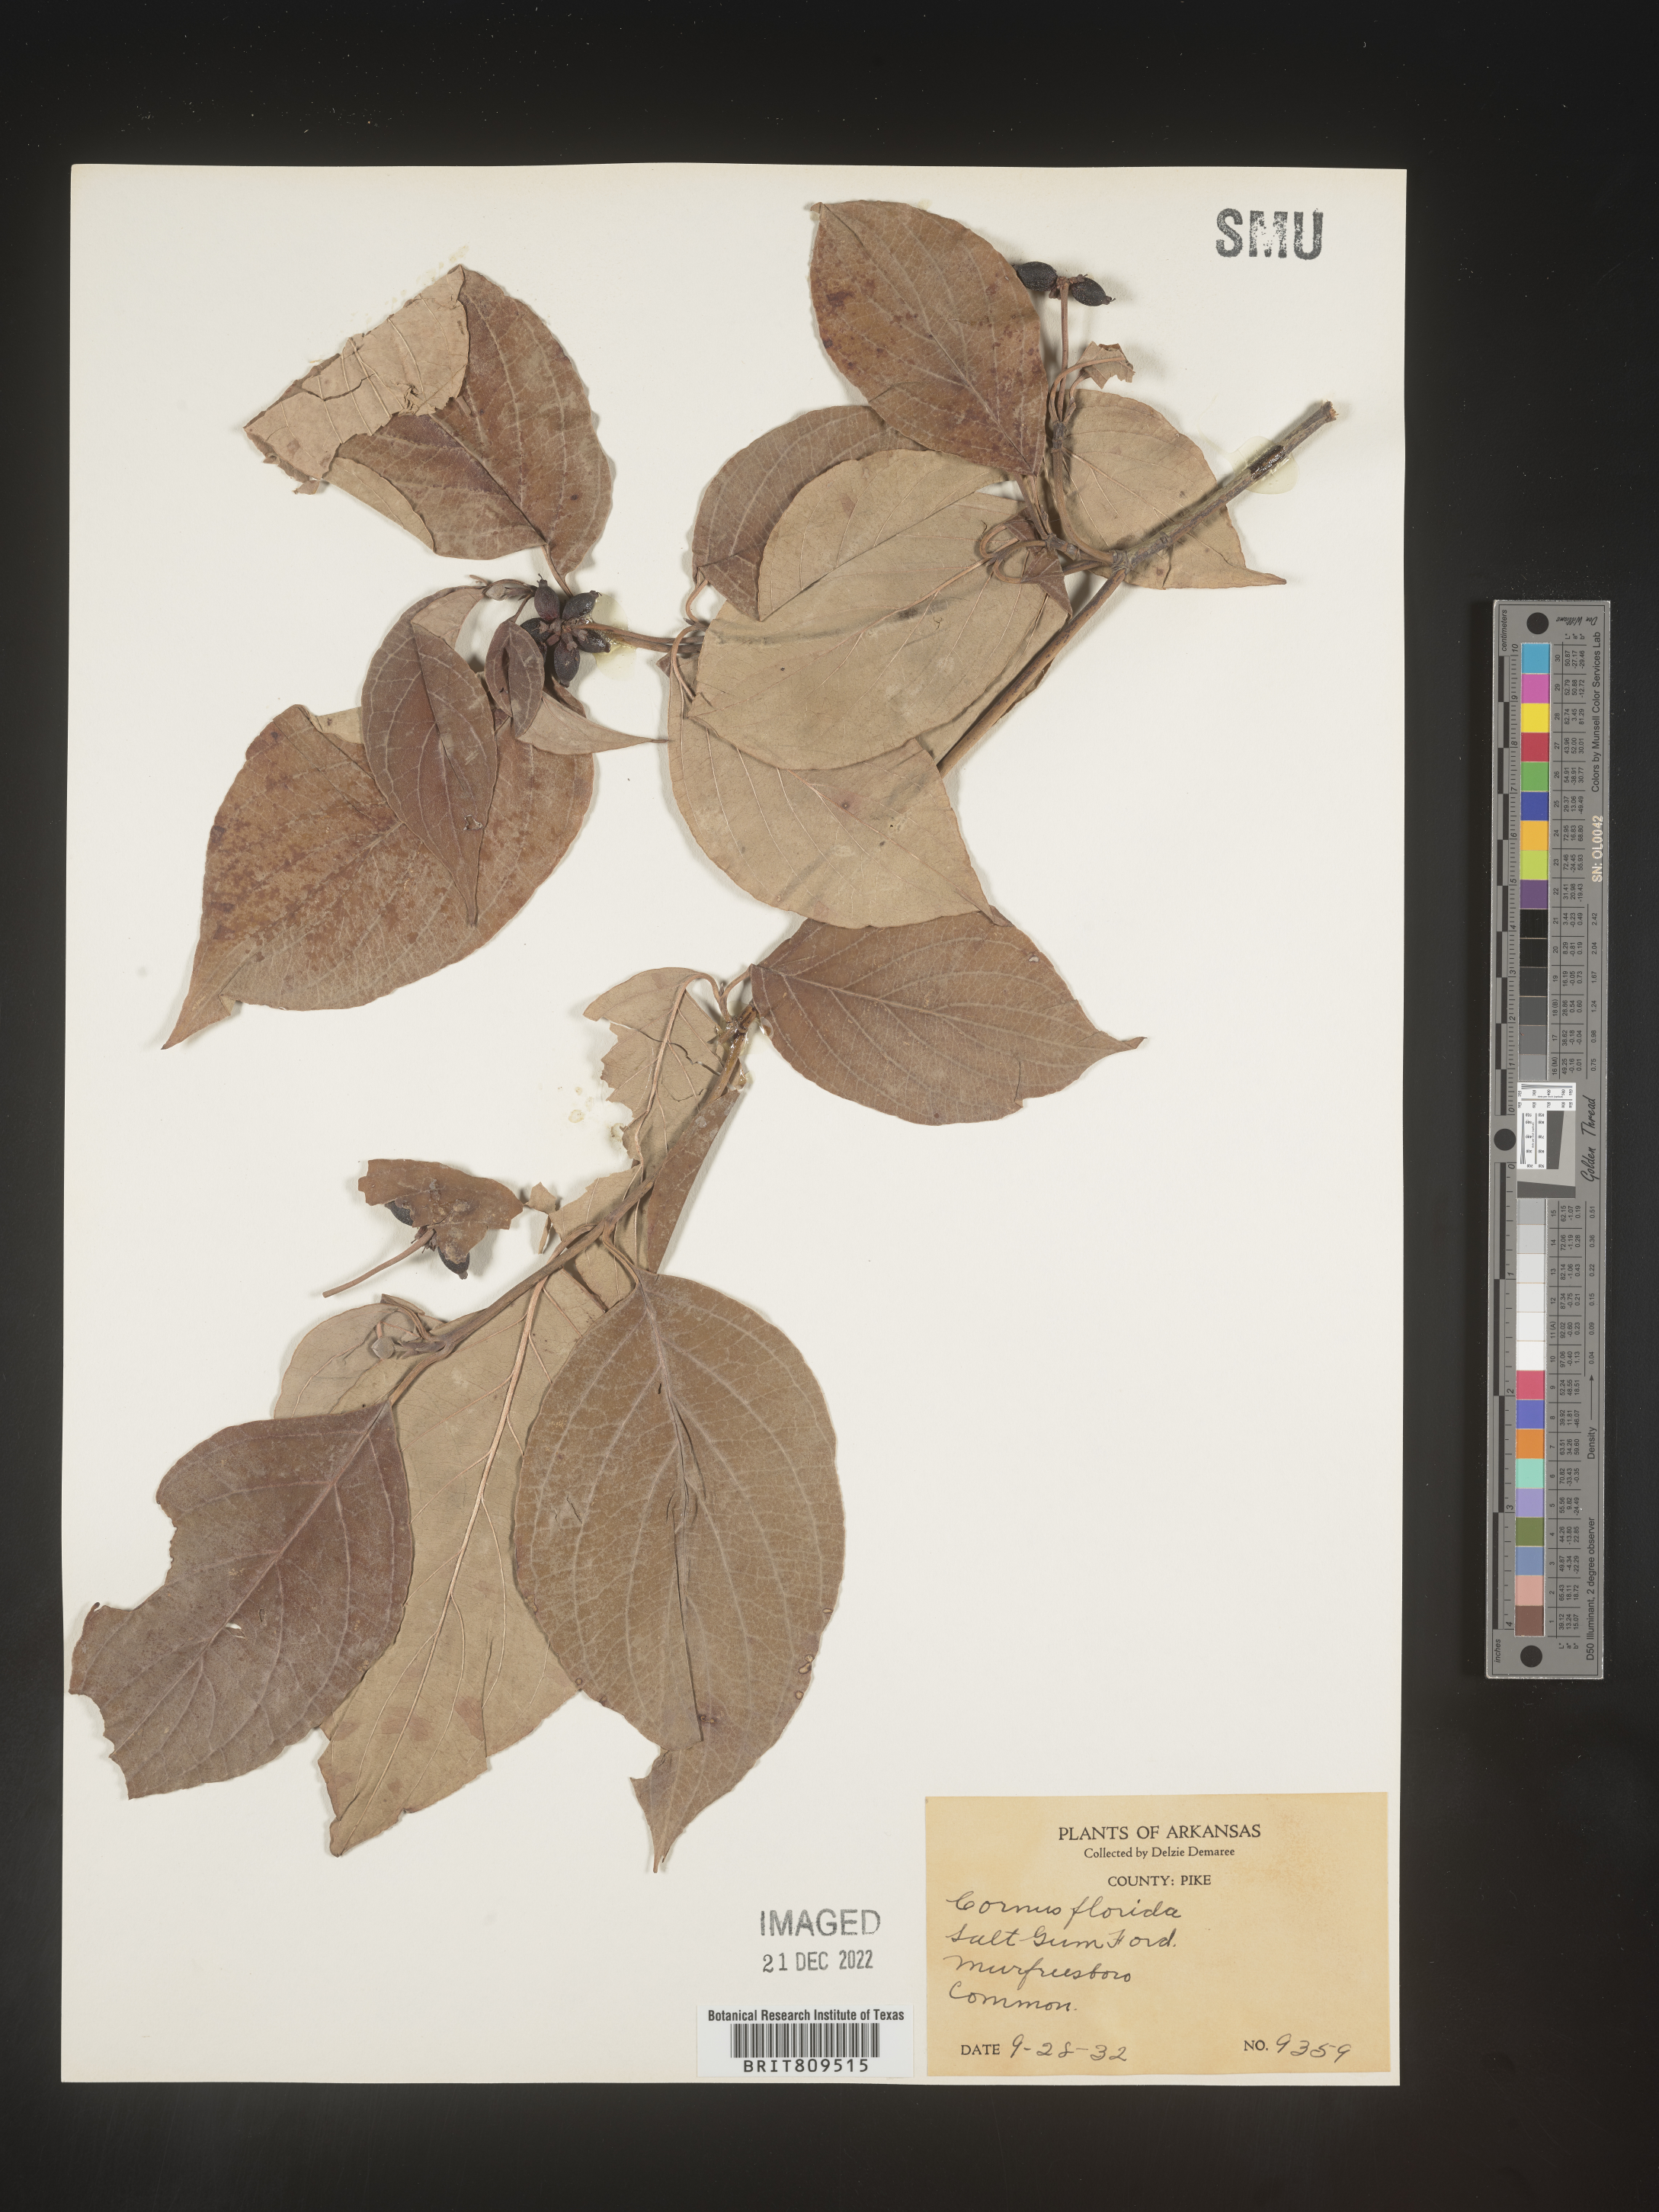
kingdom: Plantae
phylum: Tracheophyta
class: Magnoliopsida
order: Cornales
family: Cornaceae
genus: Cornus
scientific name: Cornus florida
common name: Flowering dogwood
